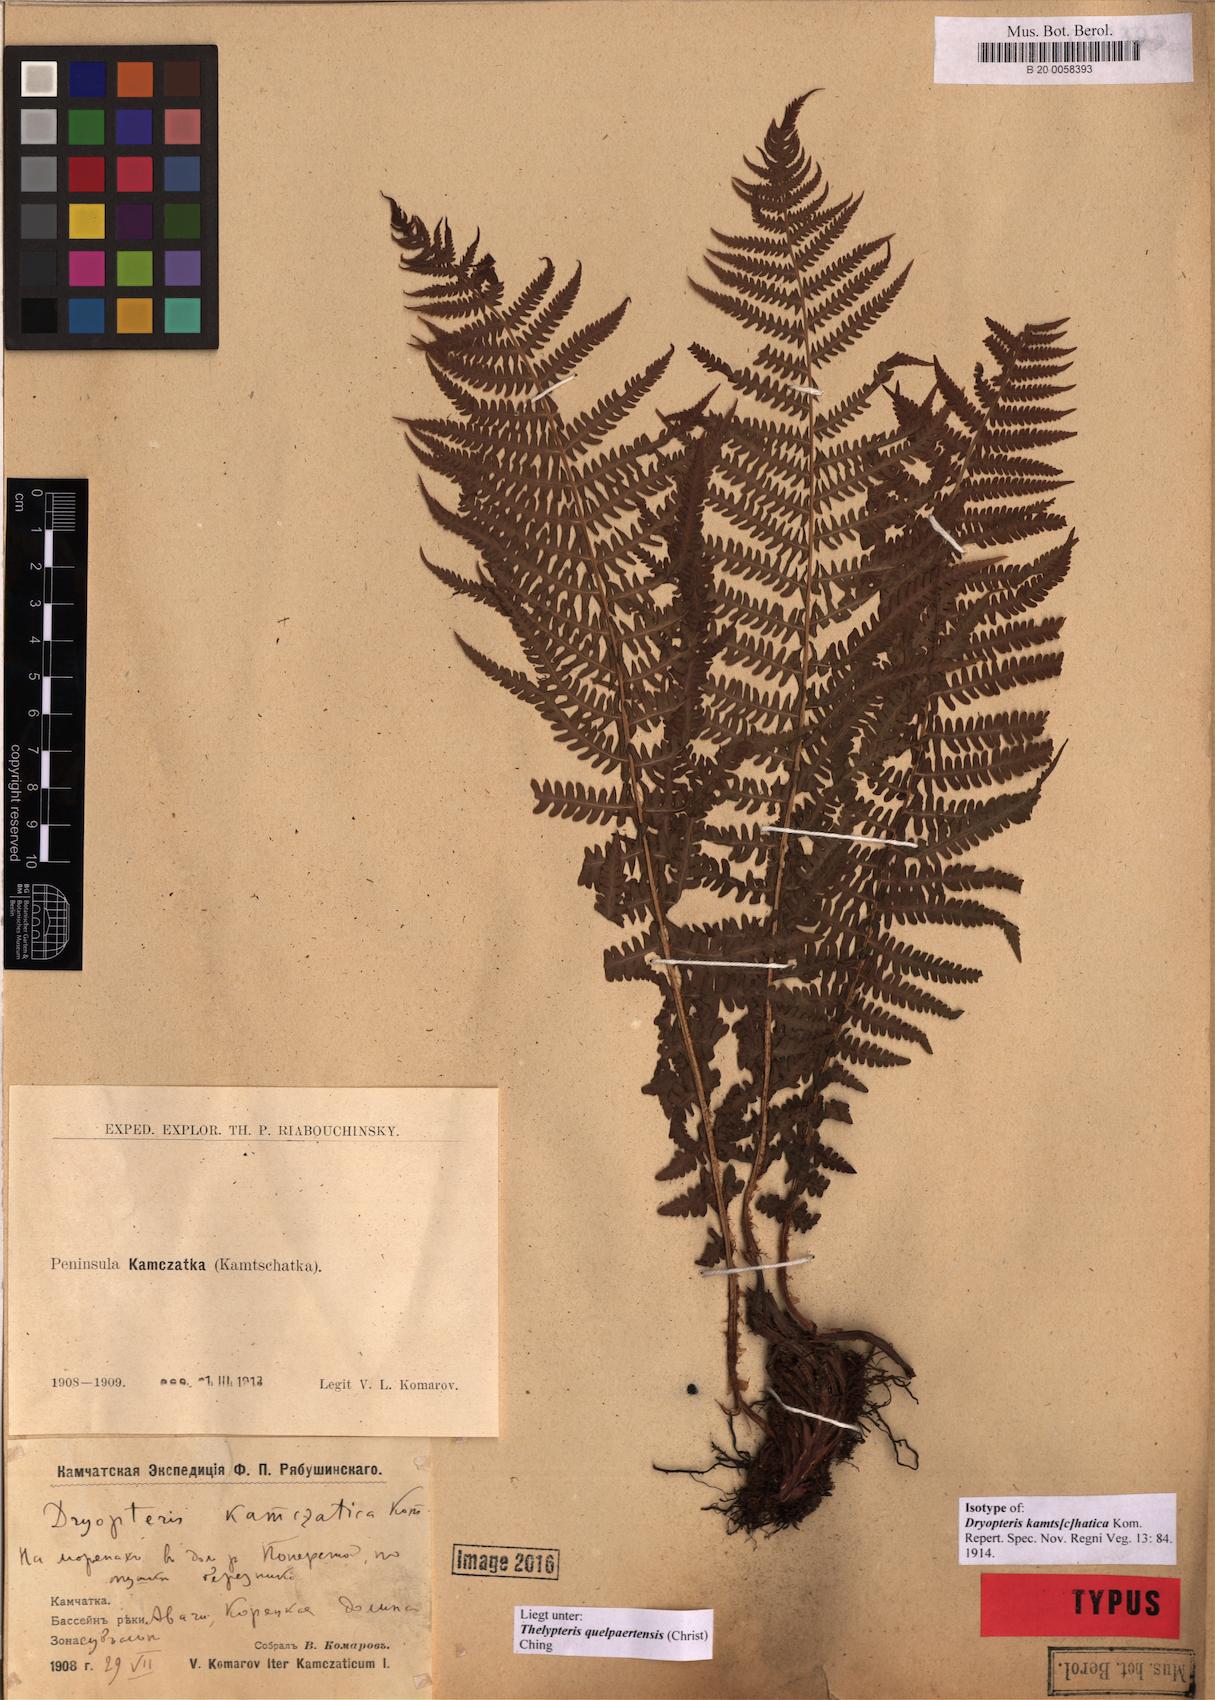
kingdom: Plantae
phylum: Tracheophyta
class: Polypodiopsida
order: Polypodiales
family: Thelypteridaceae
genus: Oreopteris
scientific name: Oreopteris quelpartensis
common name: Mountain fern
